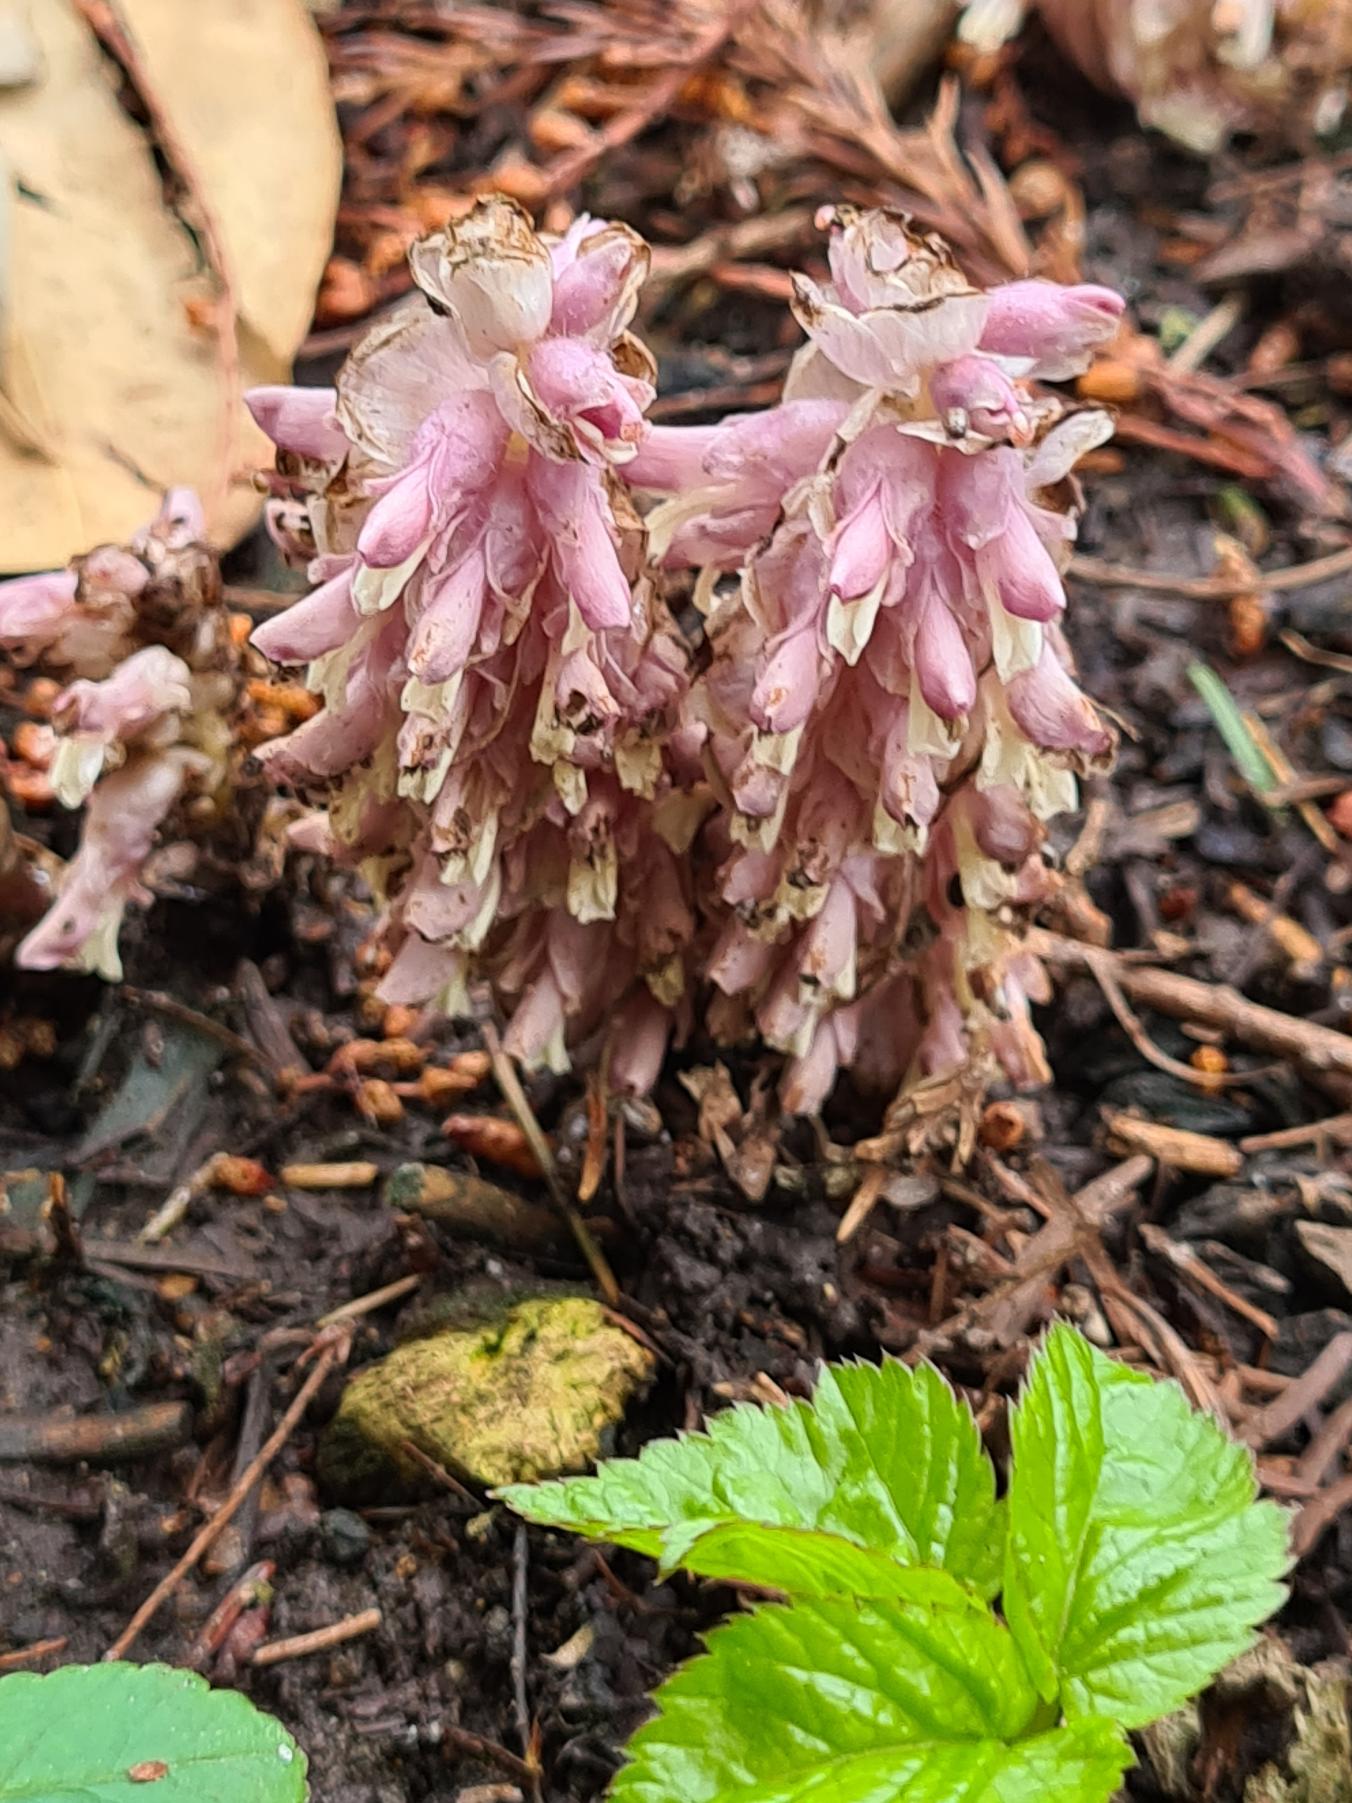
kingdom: Plantae
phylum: Tracheophyta
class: Magnoliopsida
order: Lamiales
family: Orobanchaceae
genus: Lathraea
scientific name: Lathraea squamaria
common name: Skælrod
